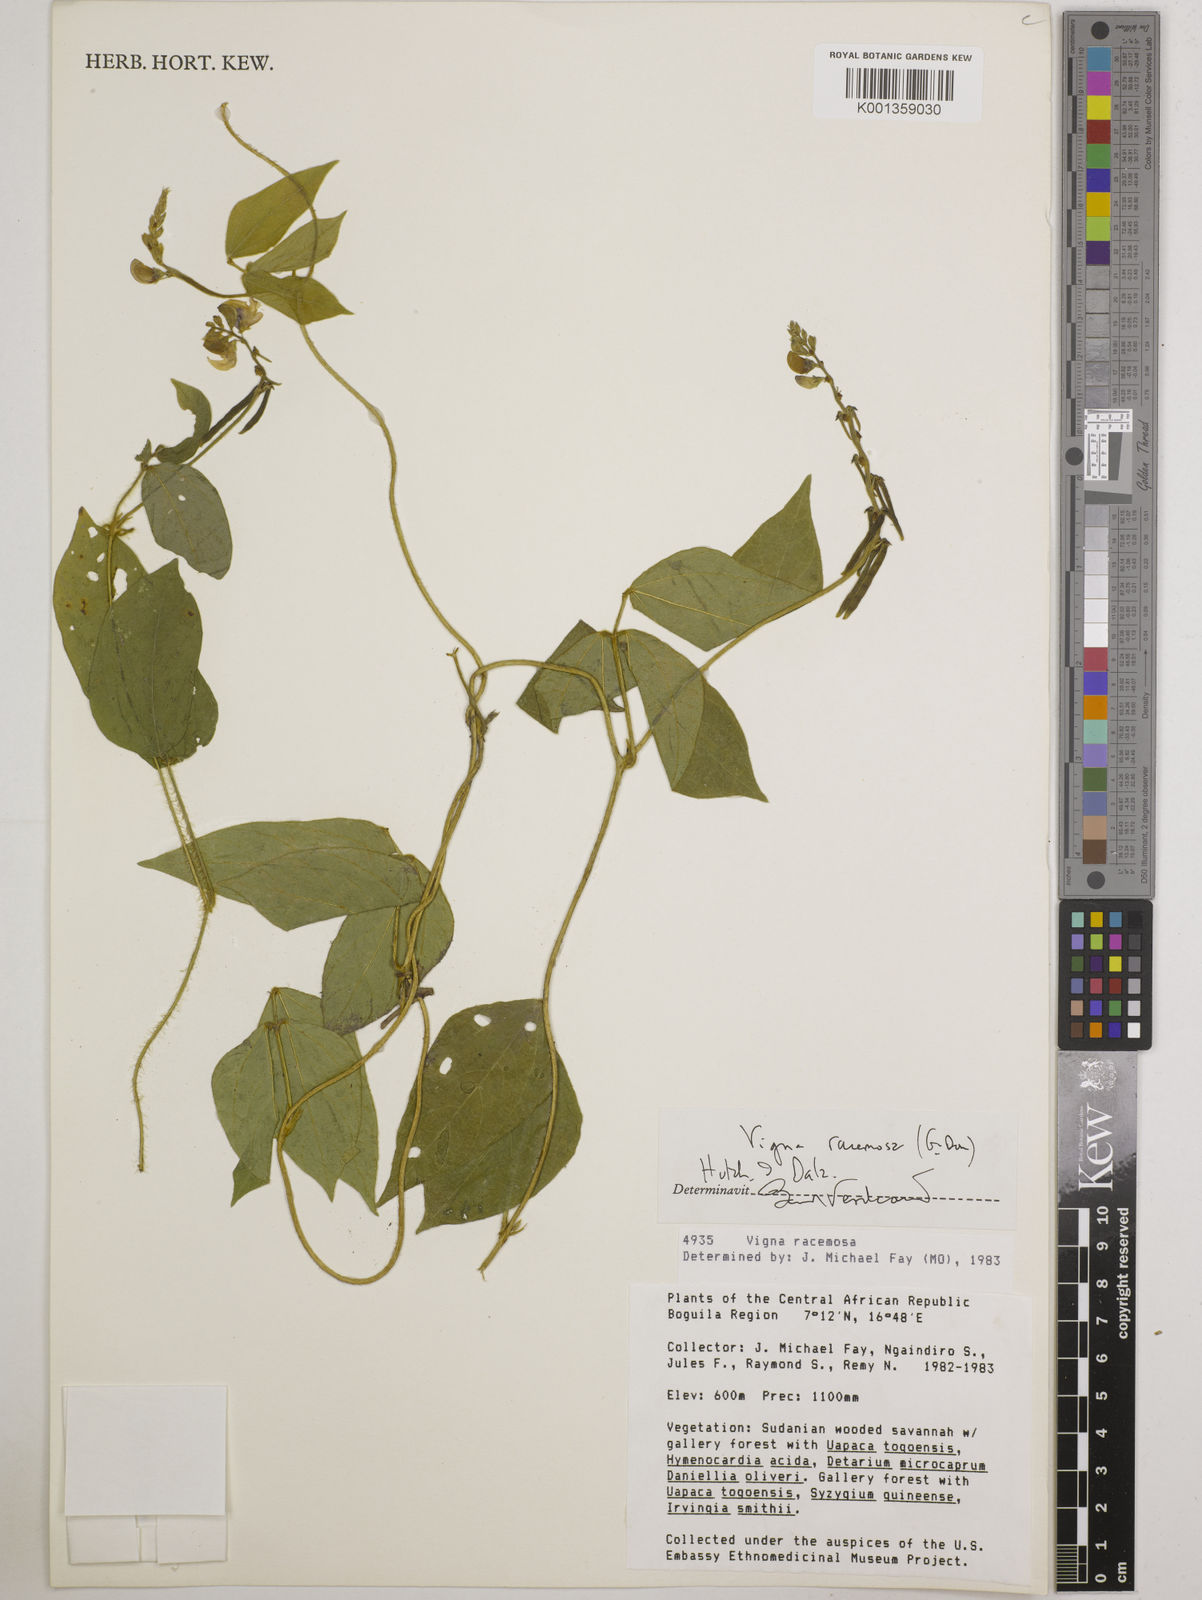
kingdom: Plantae
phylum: Tracheophyta
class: Magnoliopsida
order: Fabales
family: Fabaceae
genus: Vigna
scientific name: Vigna racemosa
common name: Beans not eaten
